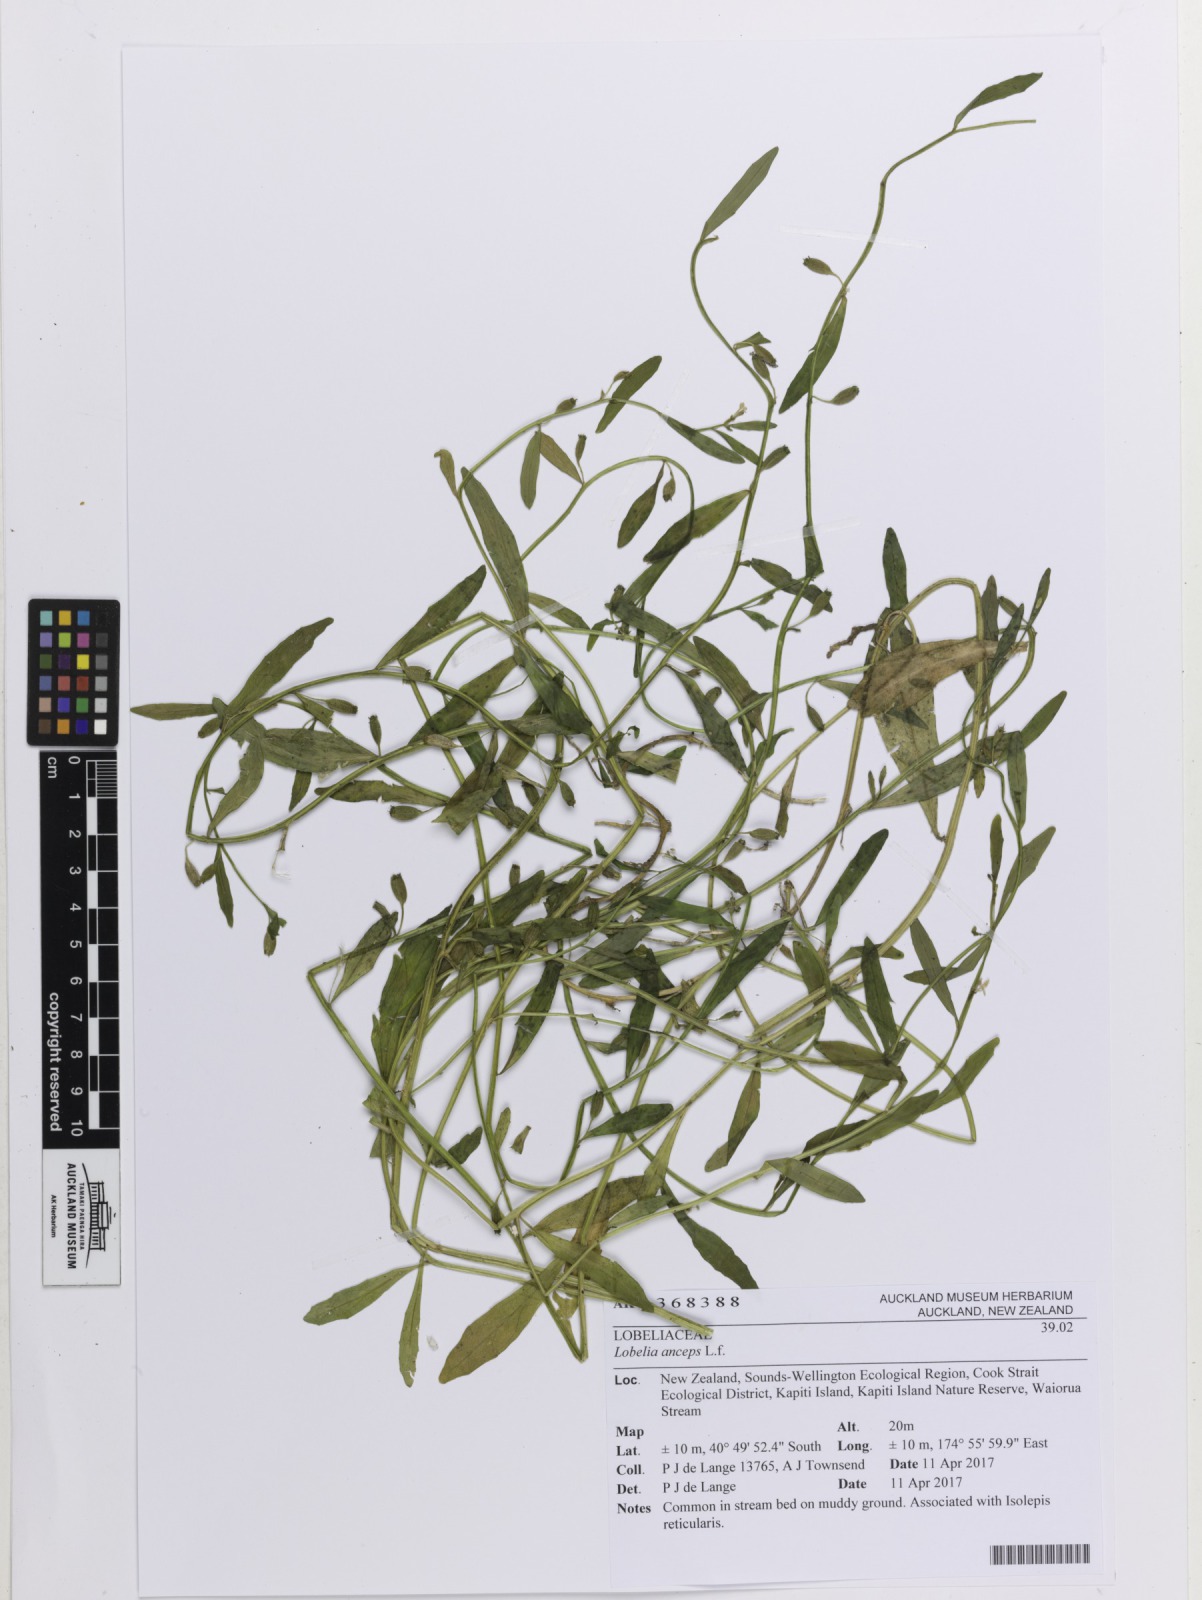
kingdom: Plantae
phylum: Tracheophyta
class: Magnoliopsida
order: Asterales
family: Campanulaceae
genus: Lobelia
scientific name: Lobelia anceps
